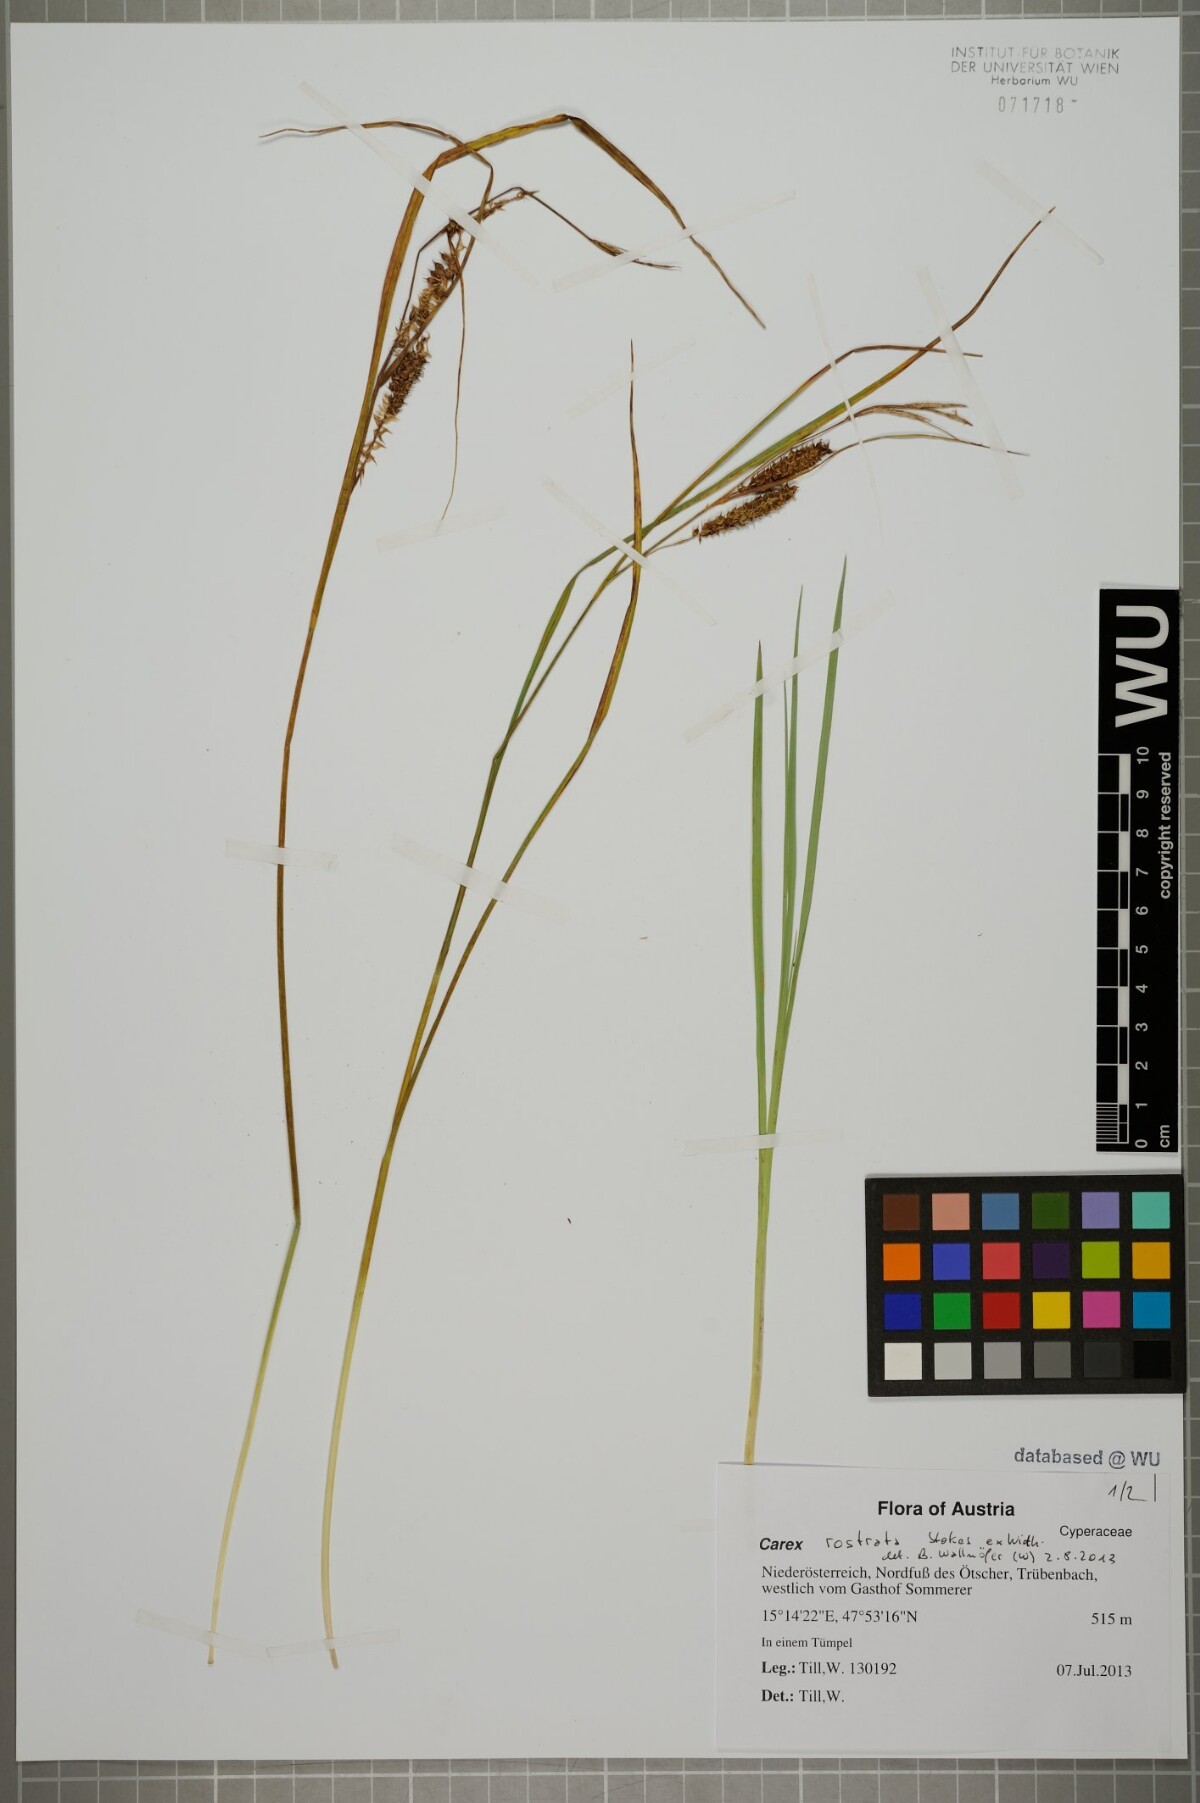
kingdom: Plantae
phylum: Tracheophyta
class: Liliopsida
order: Poales
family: Cyperaceae
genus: Carex
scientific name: Carex rostrata
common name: Bottle sedge
